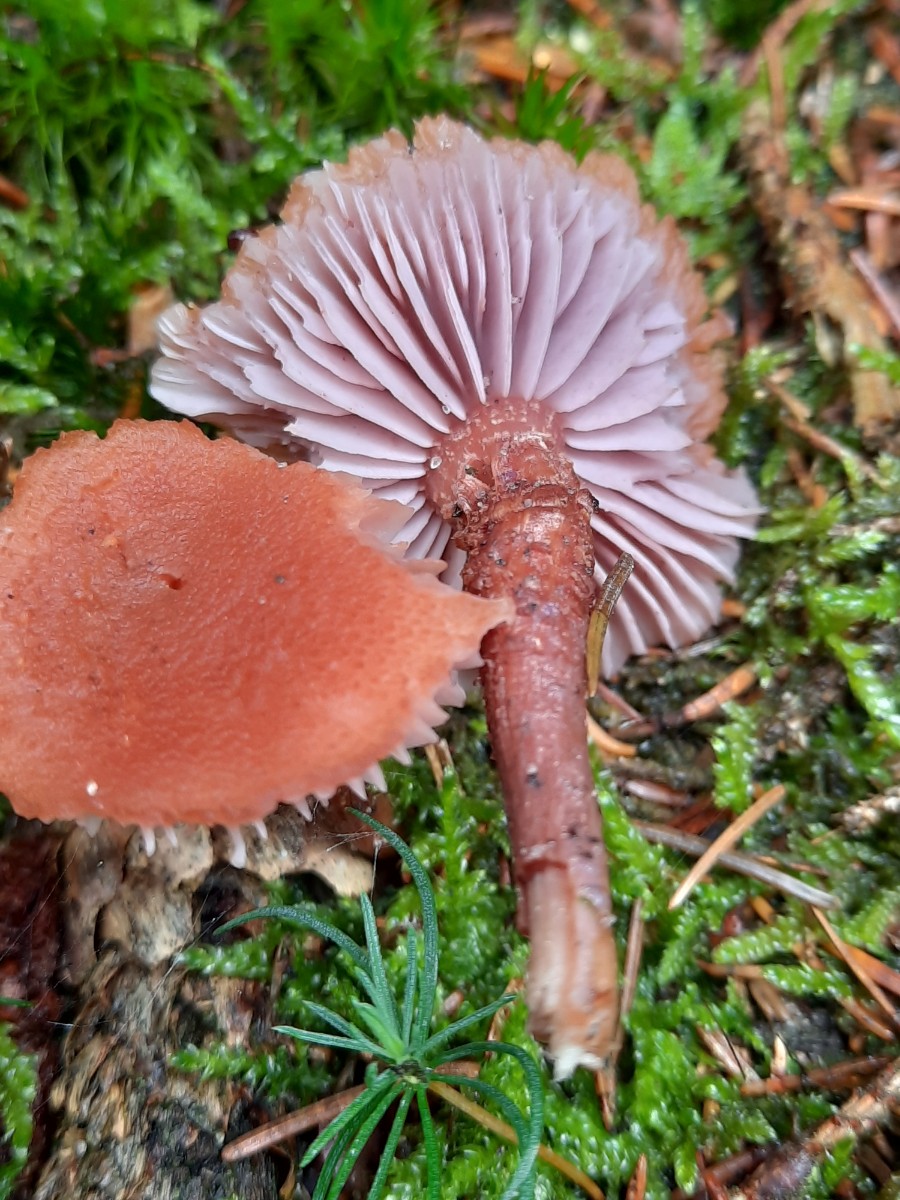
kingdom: Fungi
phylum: Basidiomycota
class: Agaricomycetes
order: Agaricales
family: Hydnangiaceae
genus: Laccaria
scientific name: Laccaria bicolor
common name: tvefarvet ametysthat
